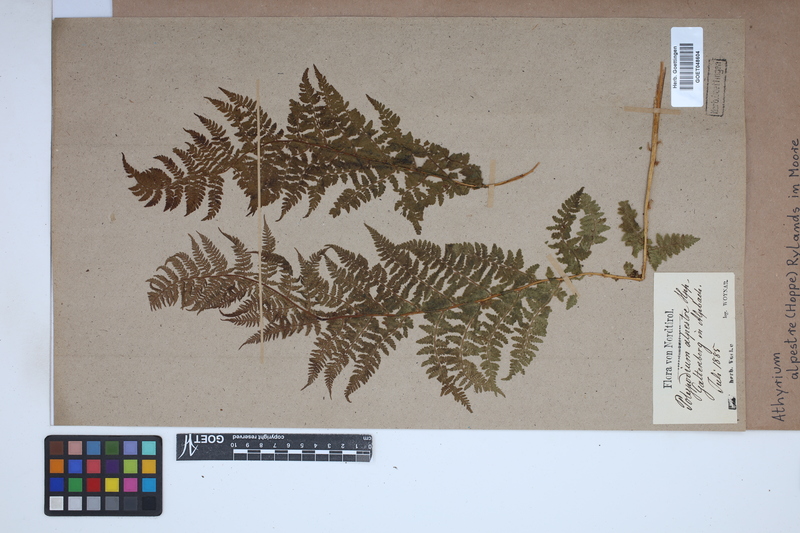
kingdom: Plantae
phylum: Tracheophyta
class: Polypodiopsida
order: Polypodiales
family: Athyriaceae
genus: Pseudathyrium
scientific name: Pseudathyrium alpestre
